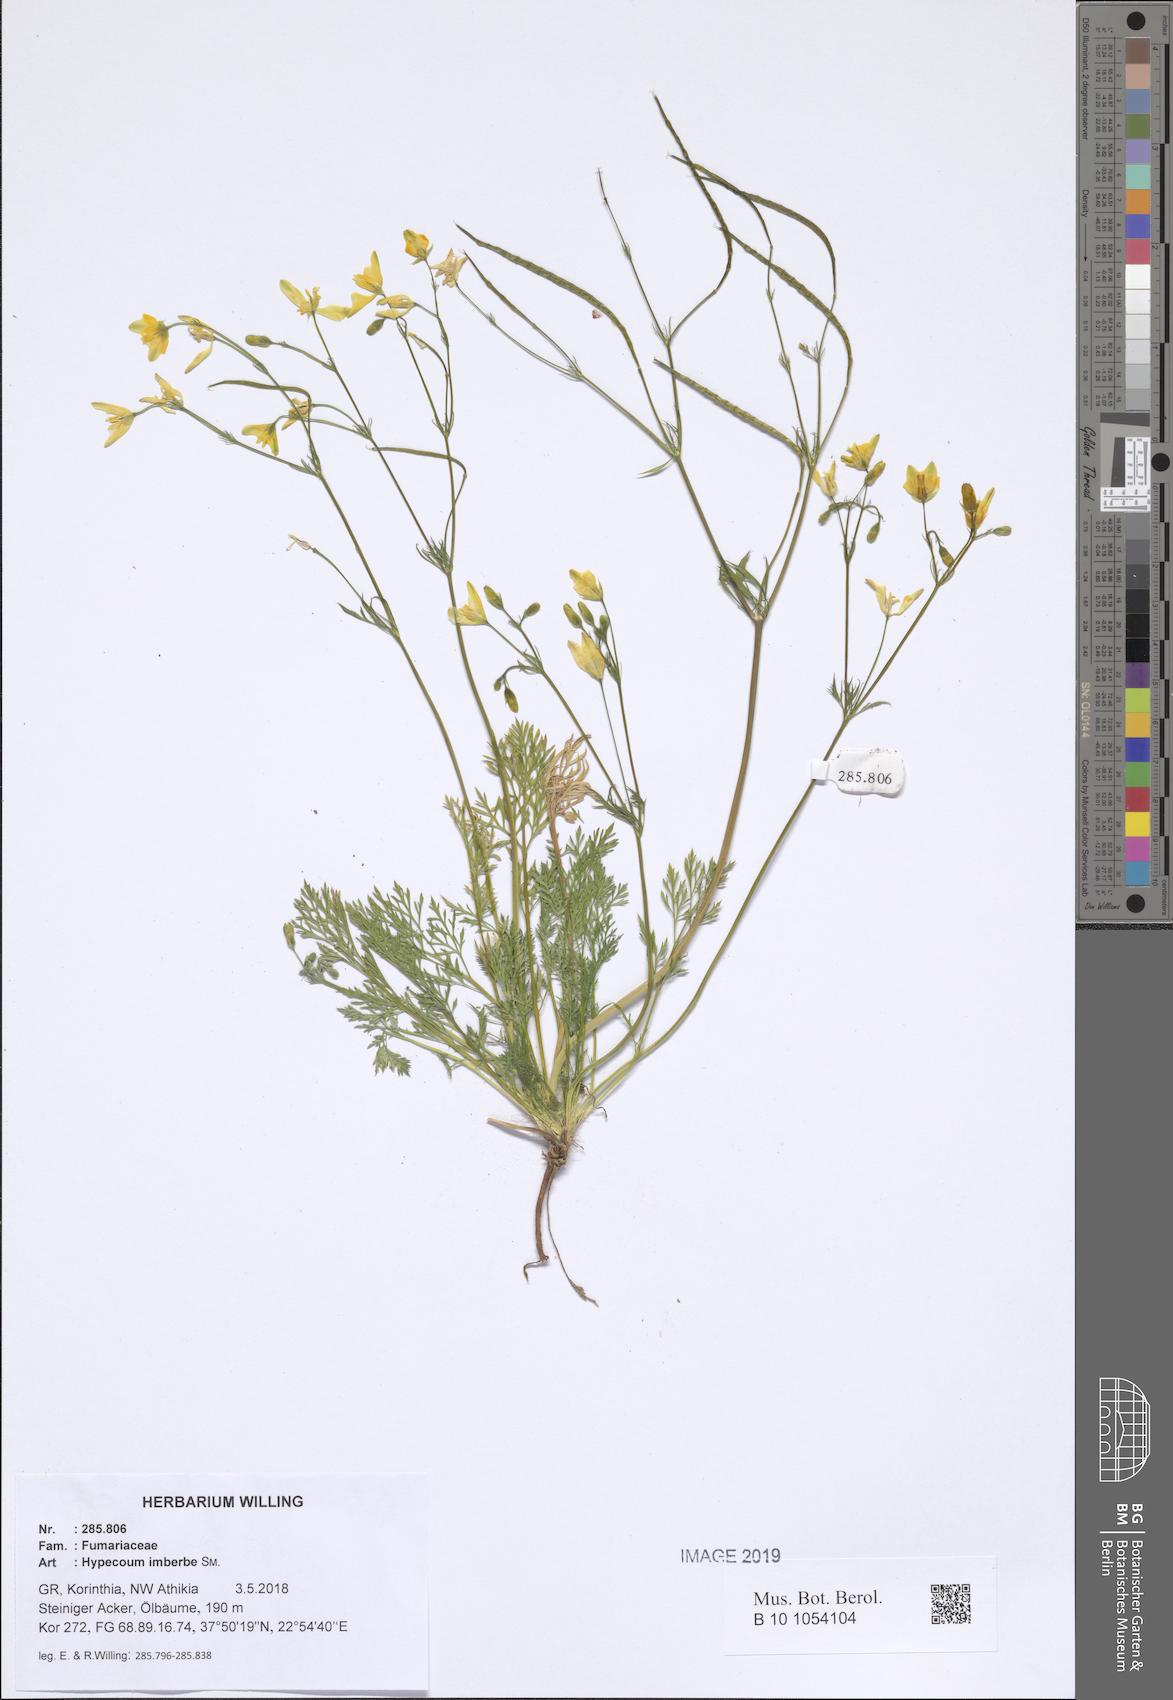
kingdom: Plantae
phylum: Tracheophyta
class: Magnoliopsida
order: Ranunculales
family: Papaveraceae
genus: Hypecoum
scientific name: Hypecoum imberbe
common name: Sicklefruit hypecoum
